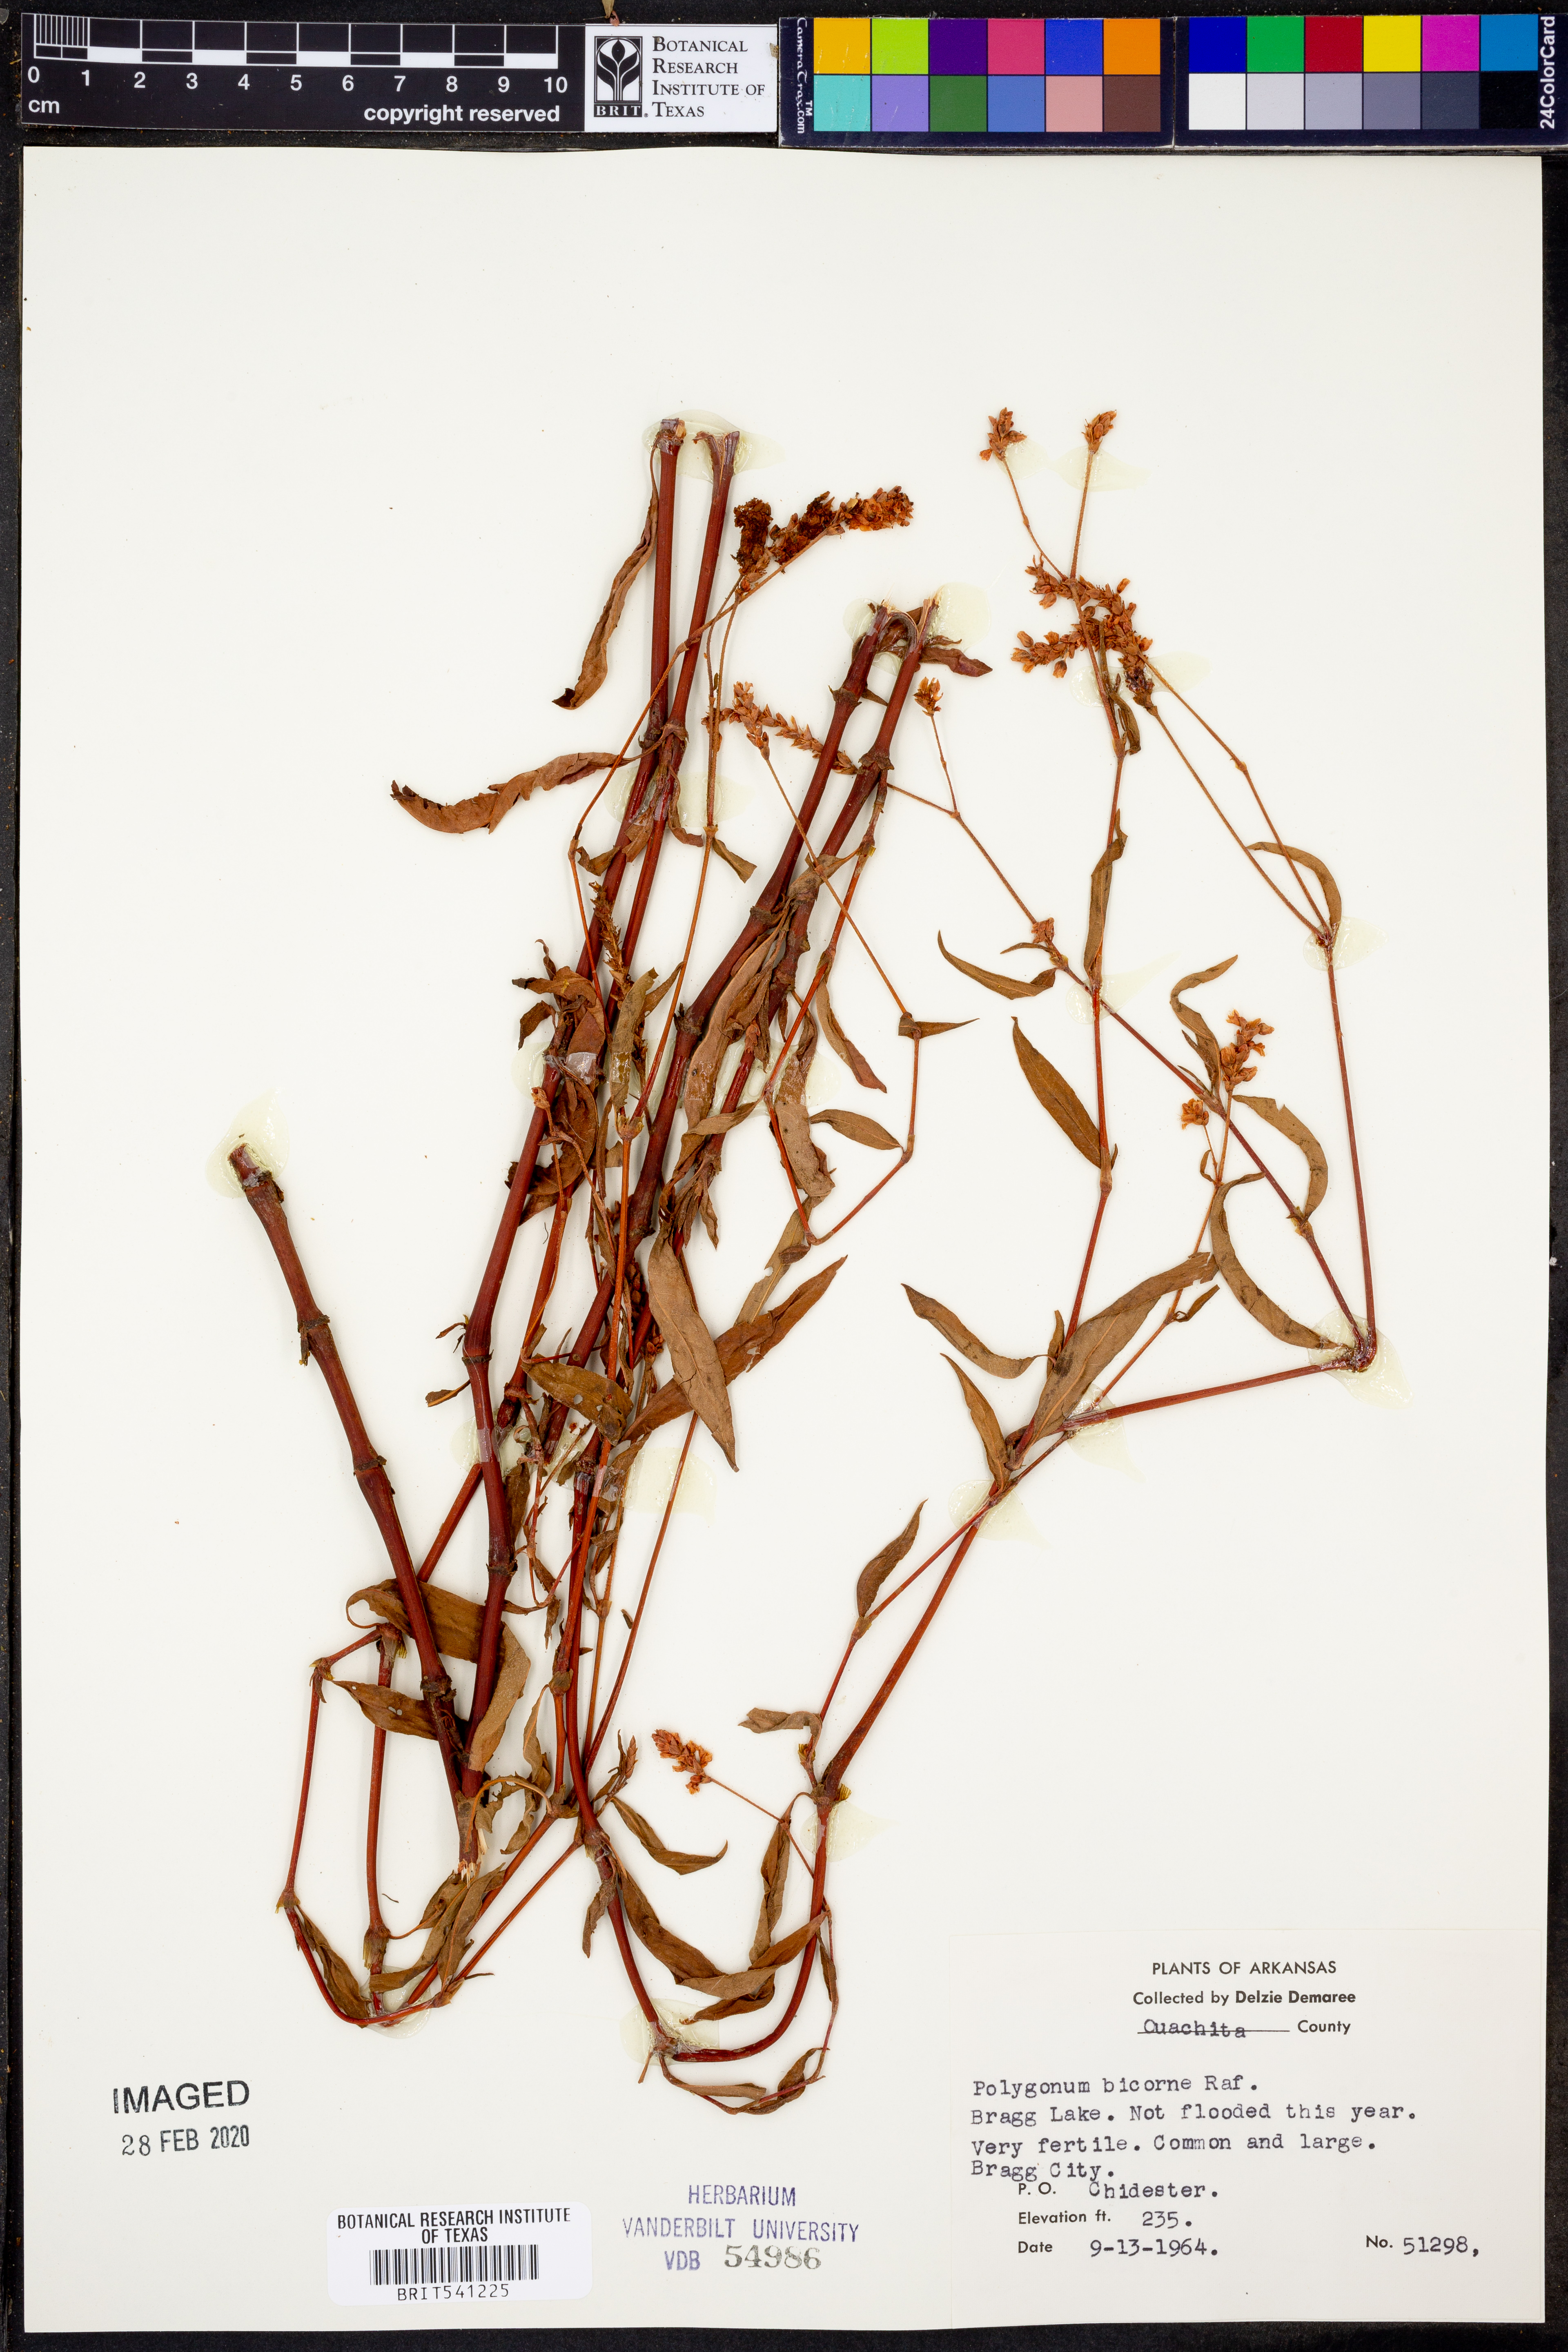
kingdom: Plantae
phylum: Tracheophyta
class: Magnoliopsida
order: Caryophyllales
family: Polygonaceae
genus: Persicaria
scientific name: Persicaria bicornis
